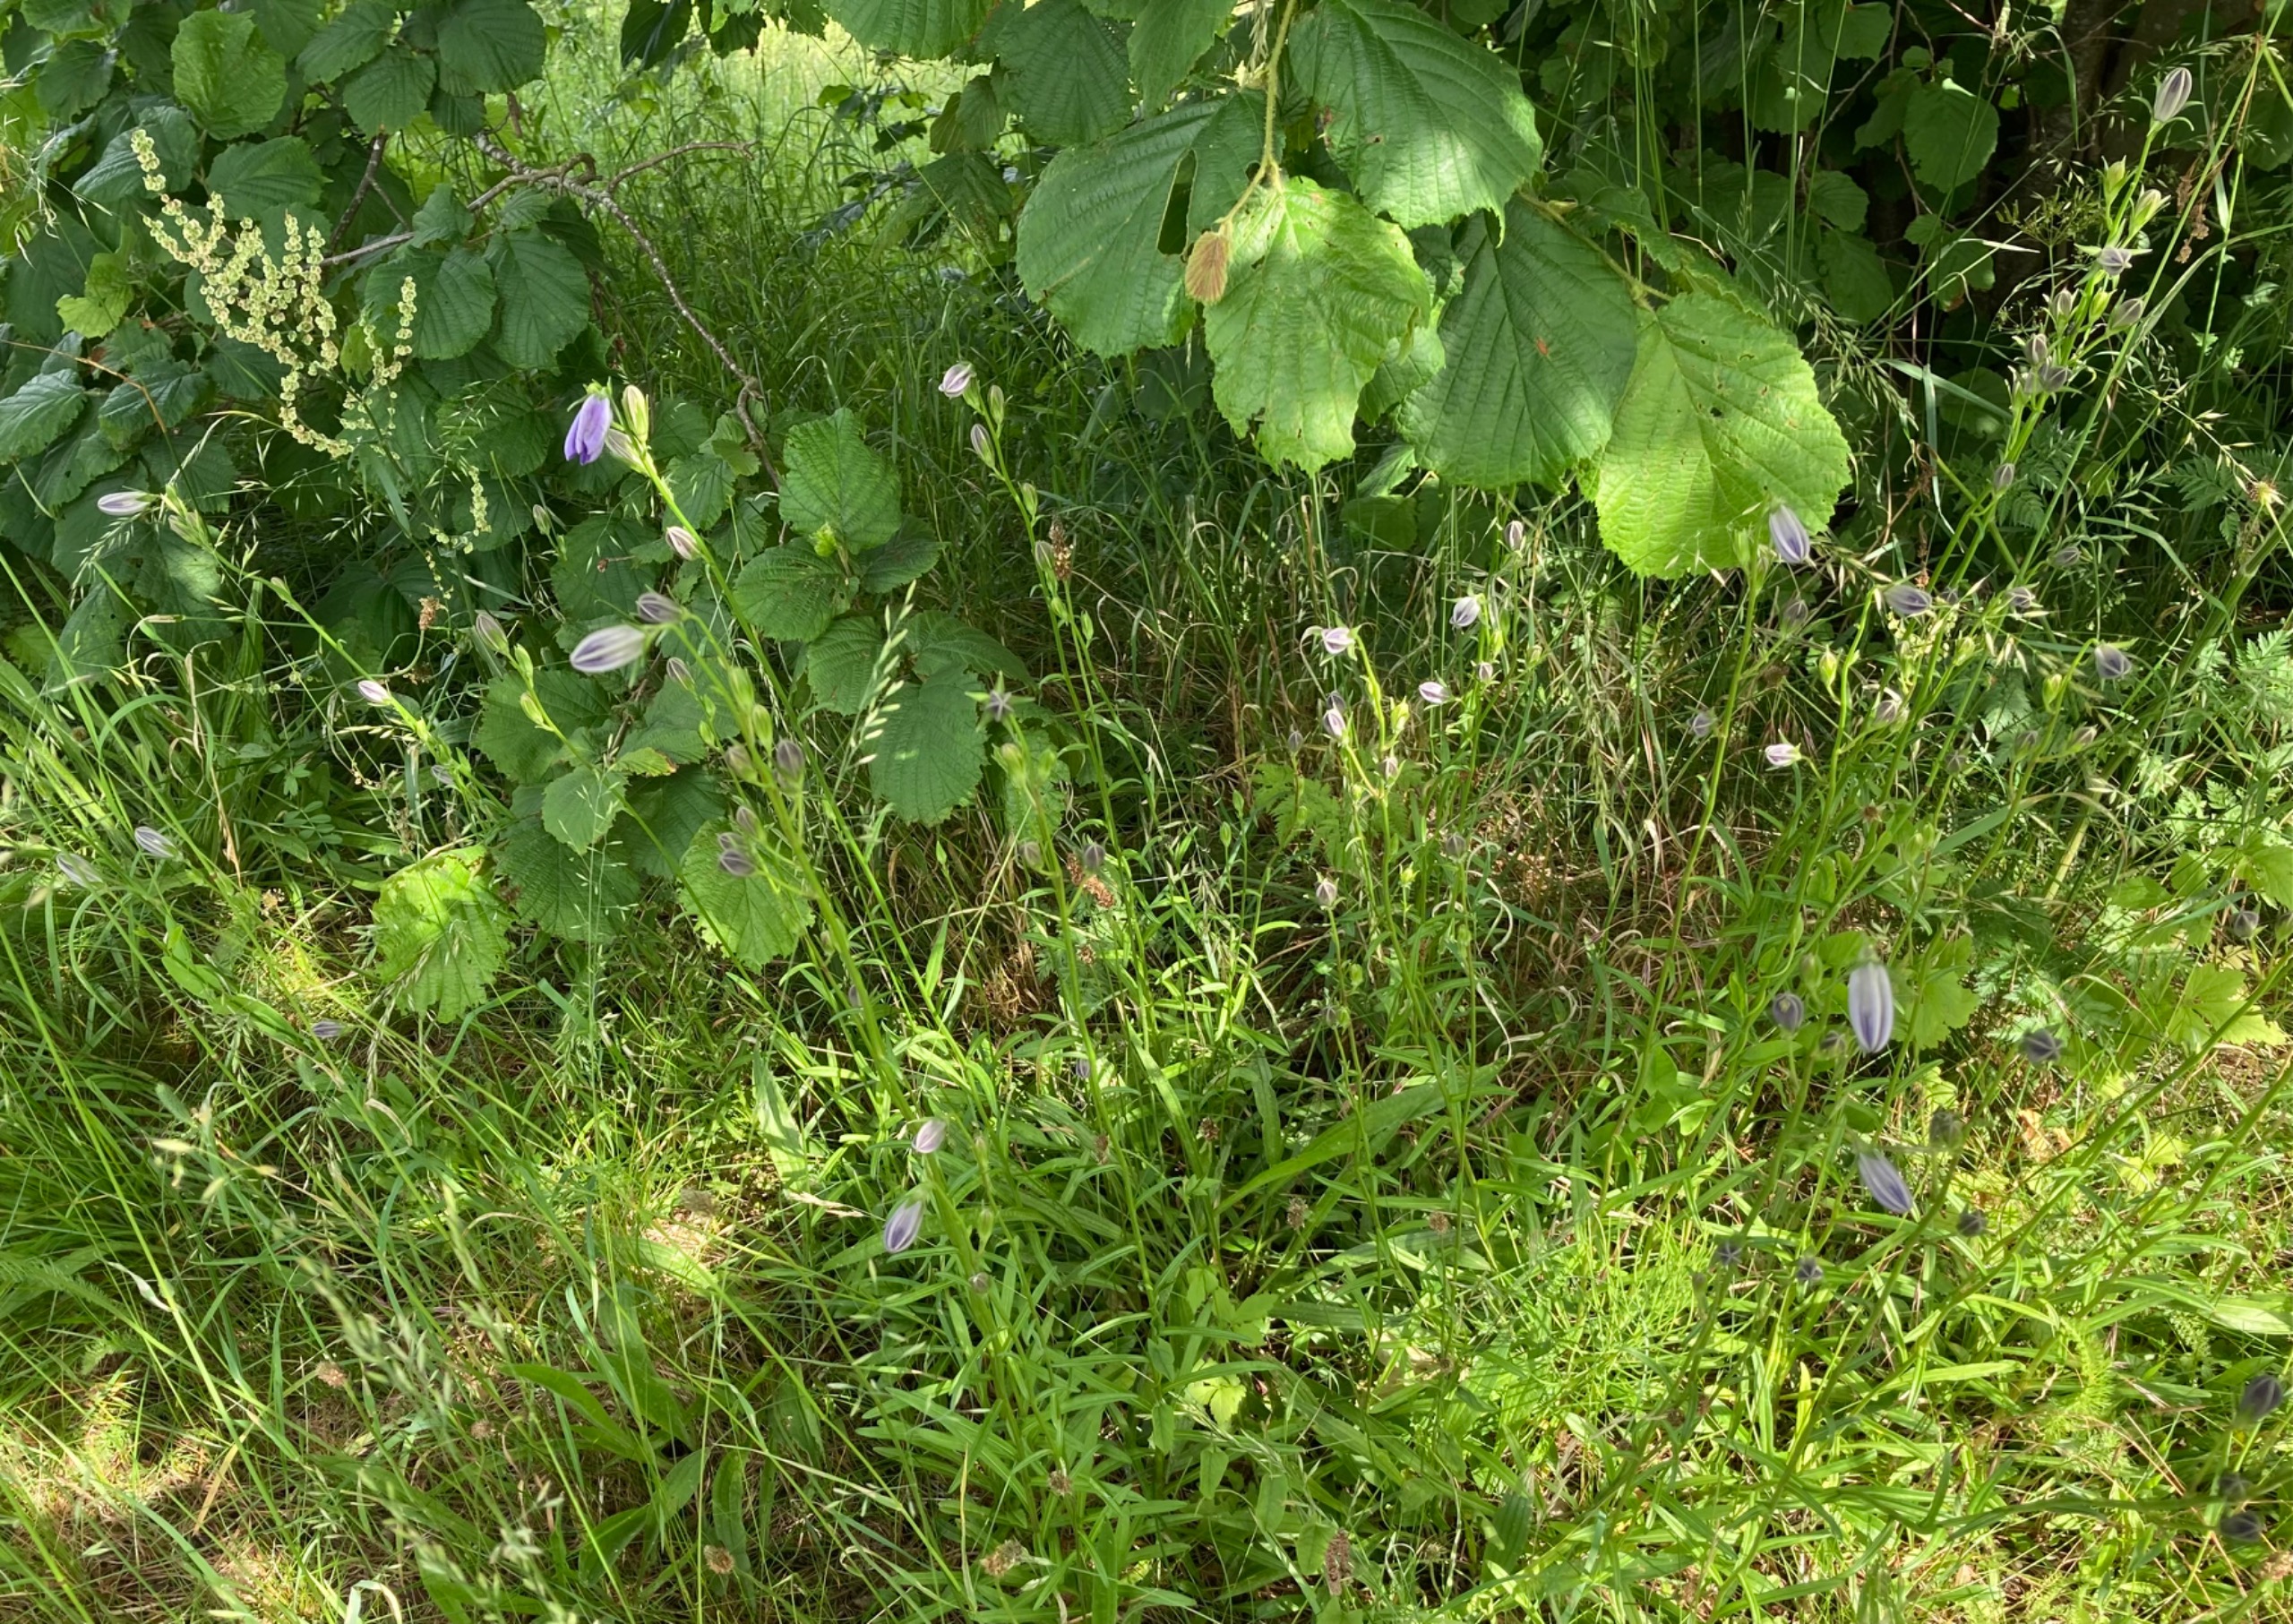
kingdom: Plantae
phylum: Tracheophyta
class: Magnoliopsida
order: Asterales
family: Campanulaceae
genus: Campanula
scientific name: Campanula persicifolia
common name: Smalbladet klokke
